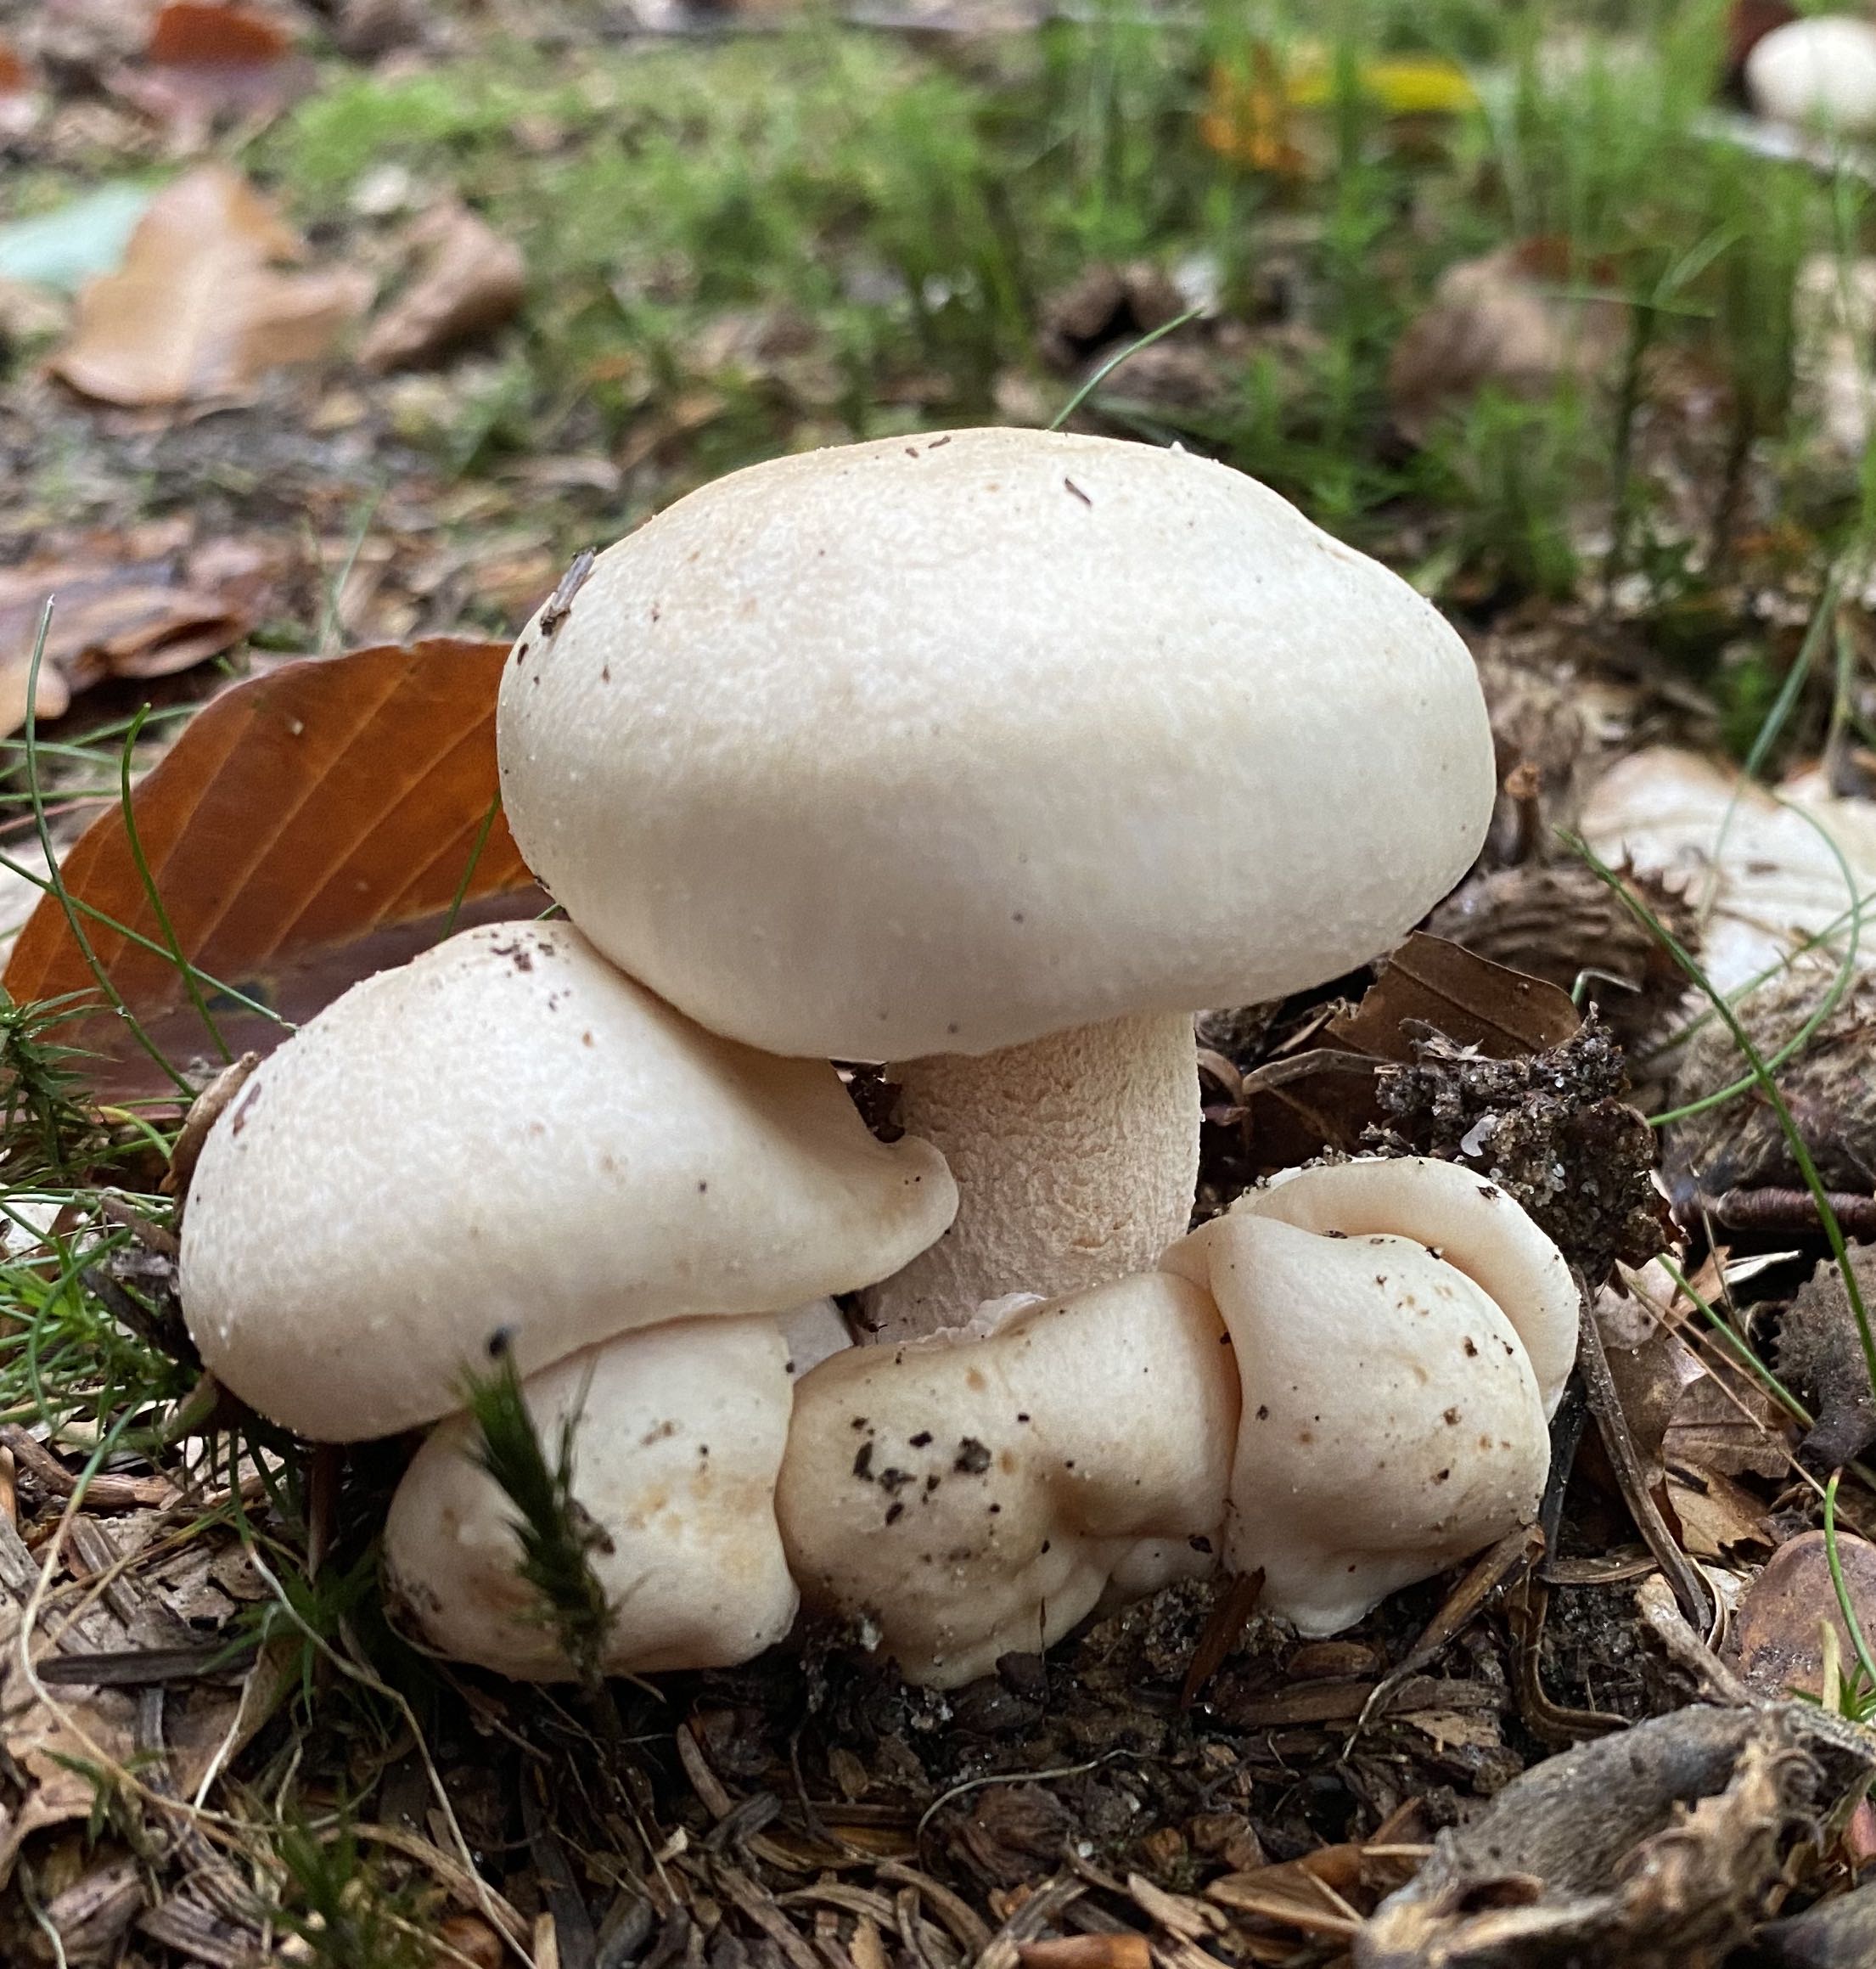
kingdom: Fungi
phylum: Basidiomycota
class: Agaricomycetes
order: Agaricales
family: Hygrophoraceae
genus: Hygrophorus
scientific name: Hygrophorus penarius
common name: spiselig sneglehat
